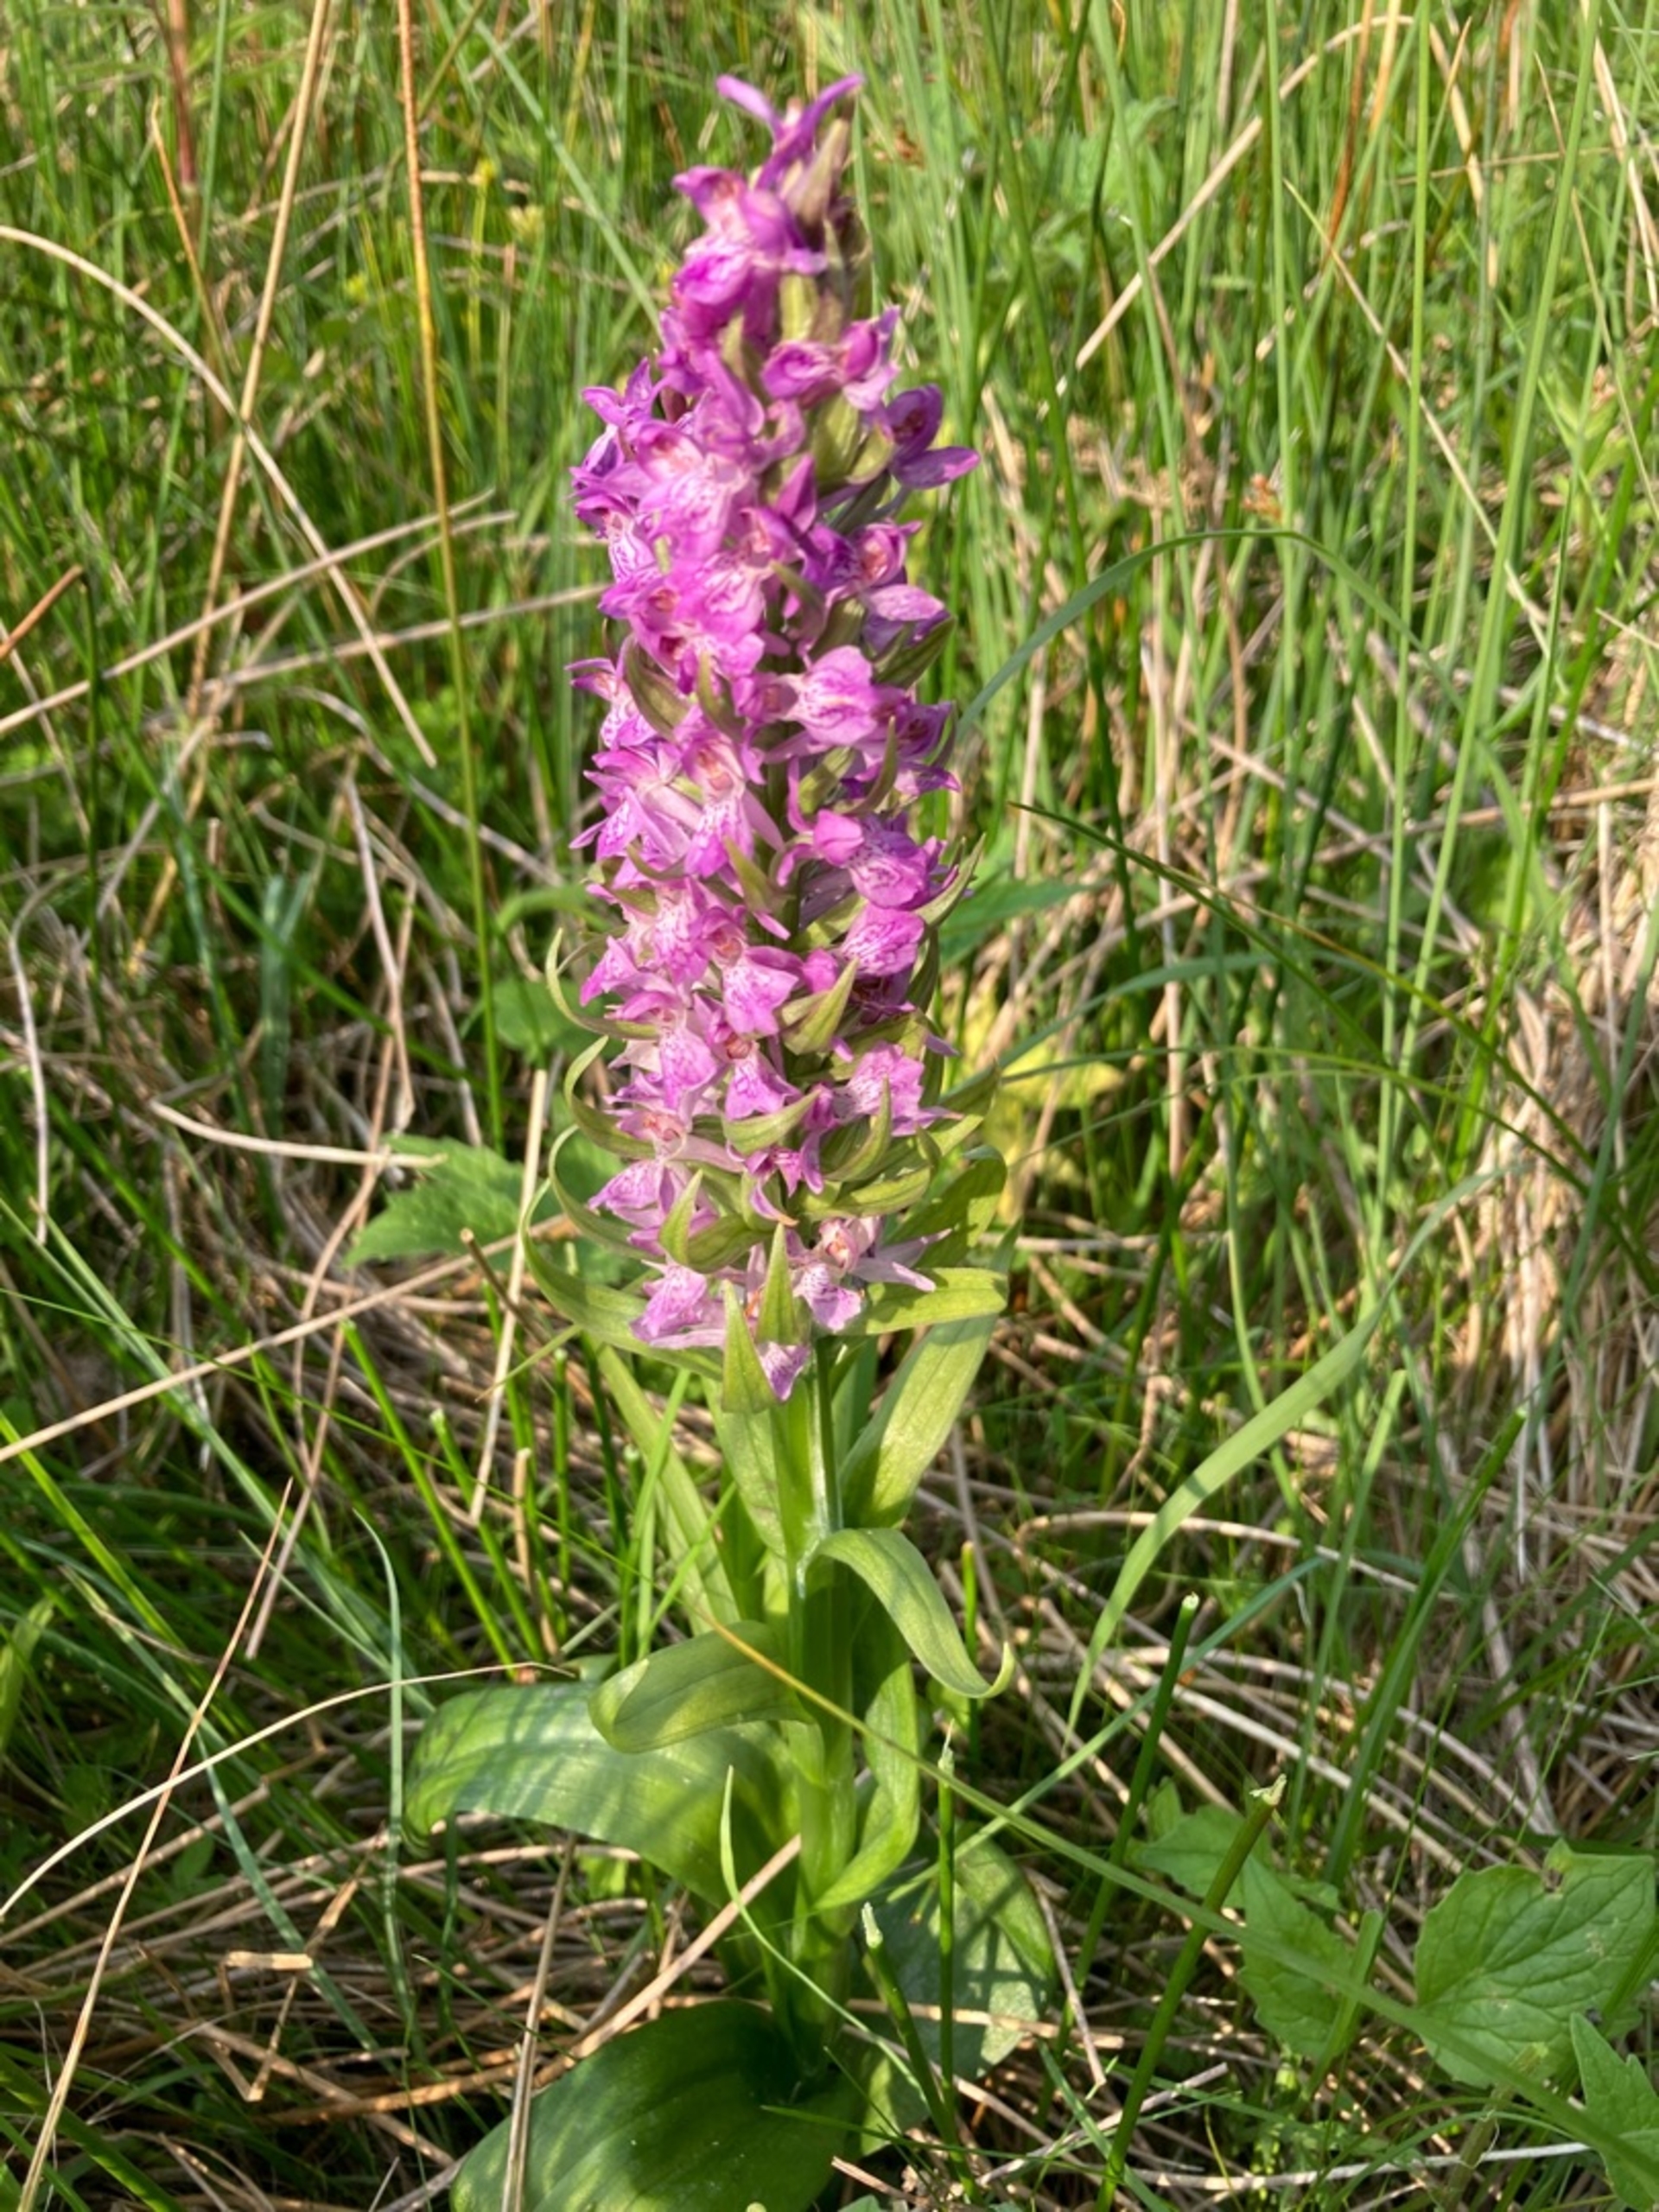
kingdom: Plantae
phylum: Tracheophyta
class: Liliopsida
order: Asparagales
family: Orchidaceae
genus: Dactylorhiza
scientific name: Dactylorhiza incarnata
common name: Kødfarvet gøgeurt
